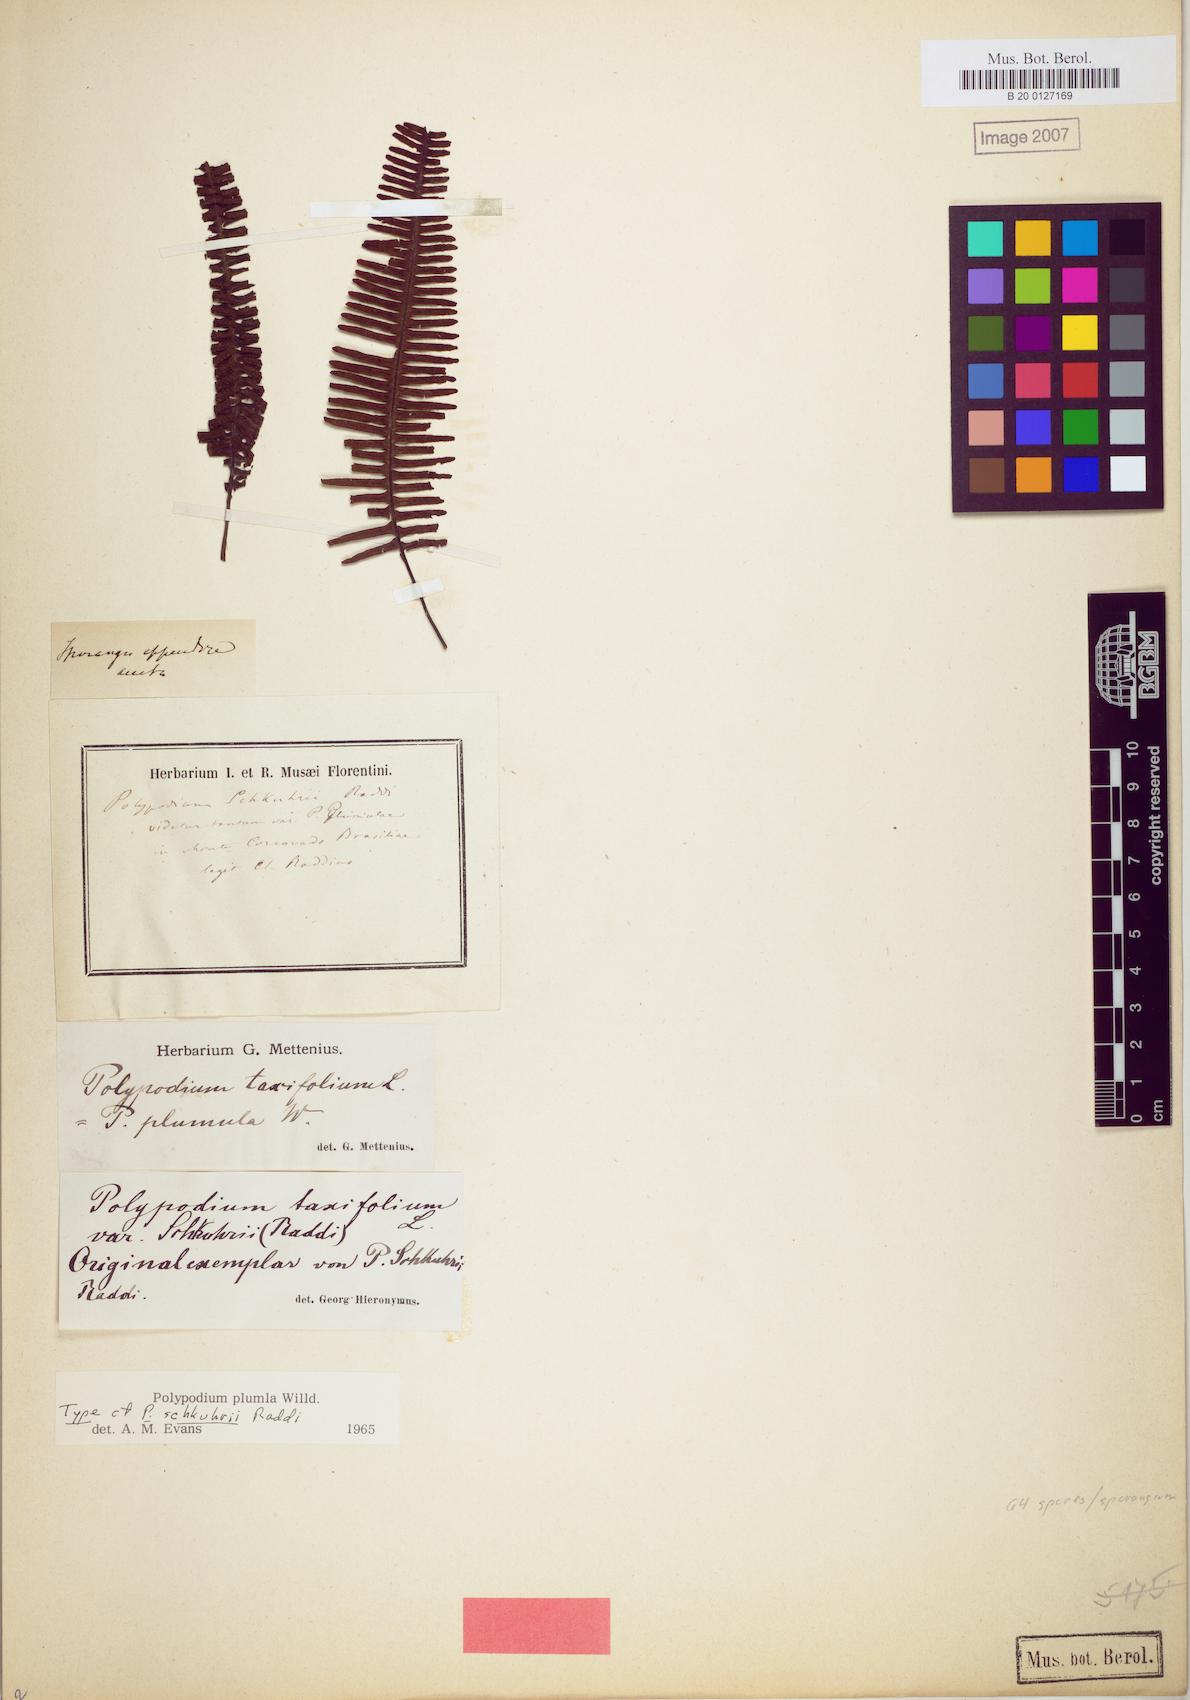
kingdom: Plantae
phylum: Tracheophyta
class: Polypodiopsida
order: Polypodiales
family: Polypodiaceae
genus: Pecluma
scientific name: Pecluma plumula
